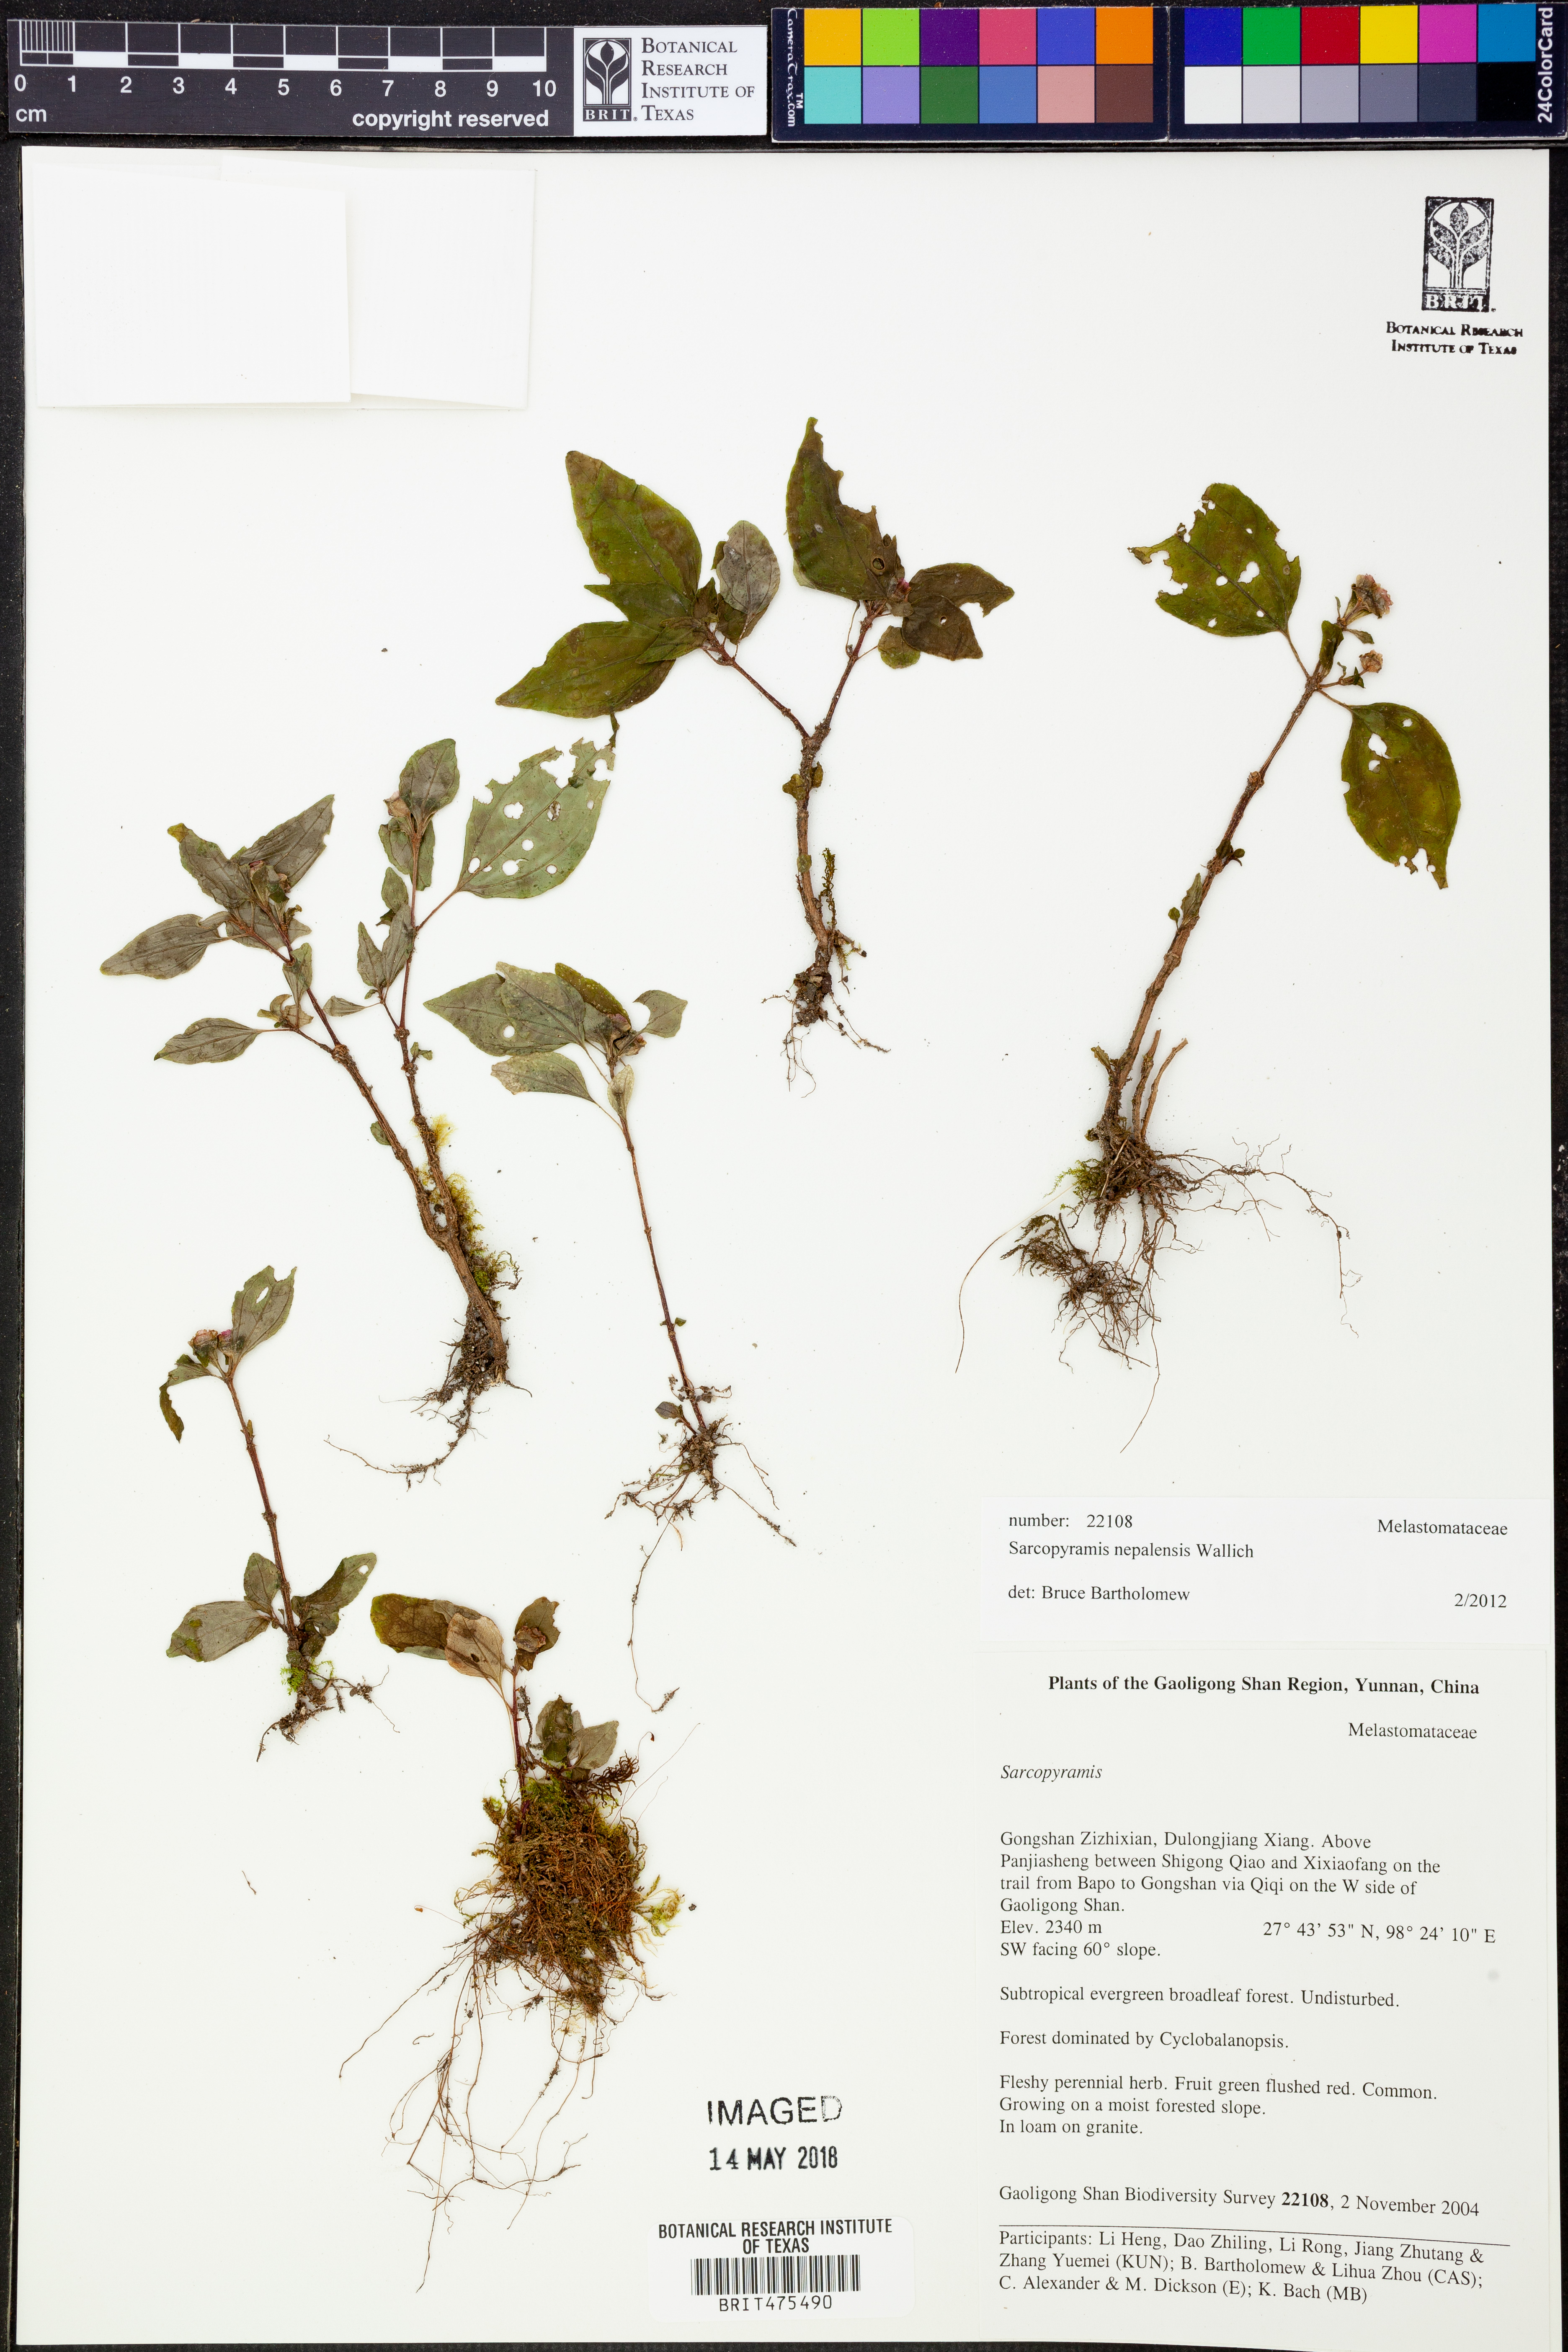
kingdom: Plantae
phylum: Tracheophyta
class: Magnoliopsida
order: Myrtales
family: Melastomataceae
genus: Sarcopyramis
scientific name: Sarcopyramis napalensis
